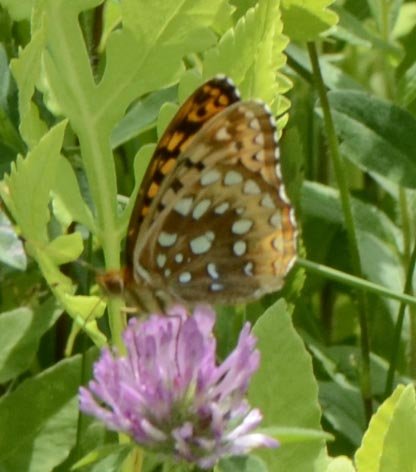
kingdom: Animalia
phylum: Arthropoda
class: Insecta
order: Lepidoptera
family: Nymphalidae
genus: Speyeria
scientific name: Speyeria cybele
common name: Great Spangled Fritillary
